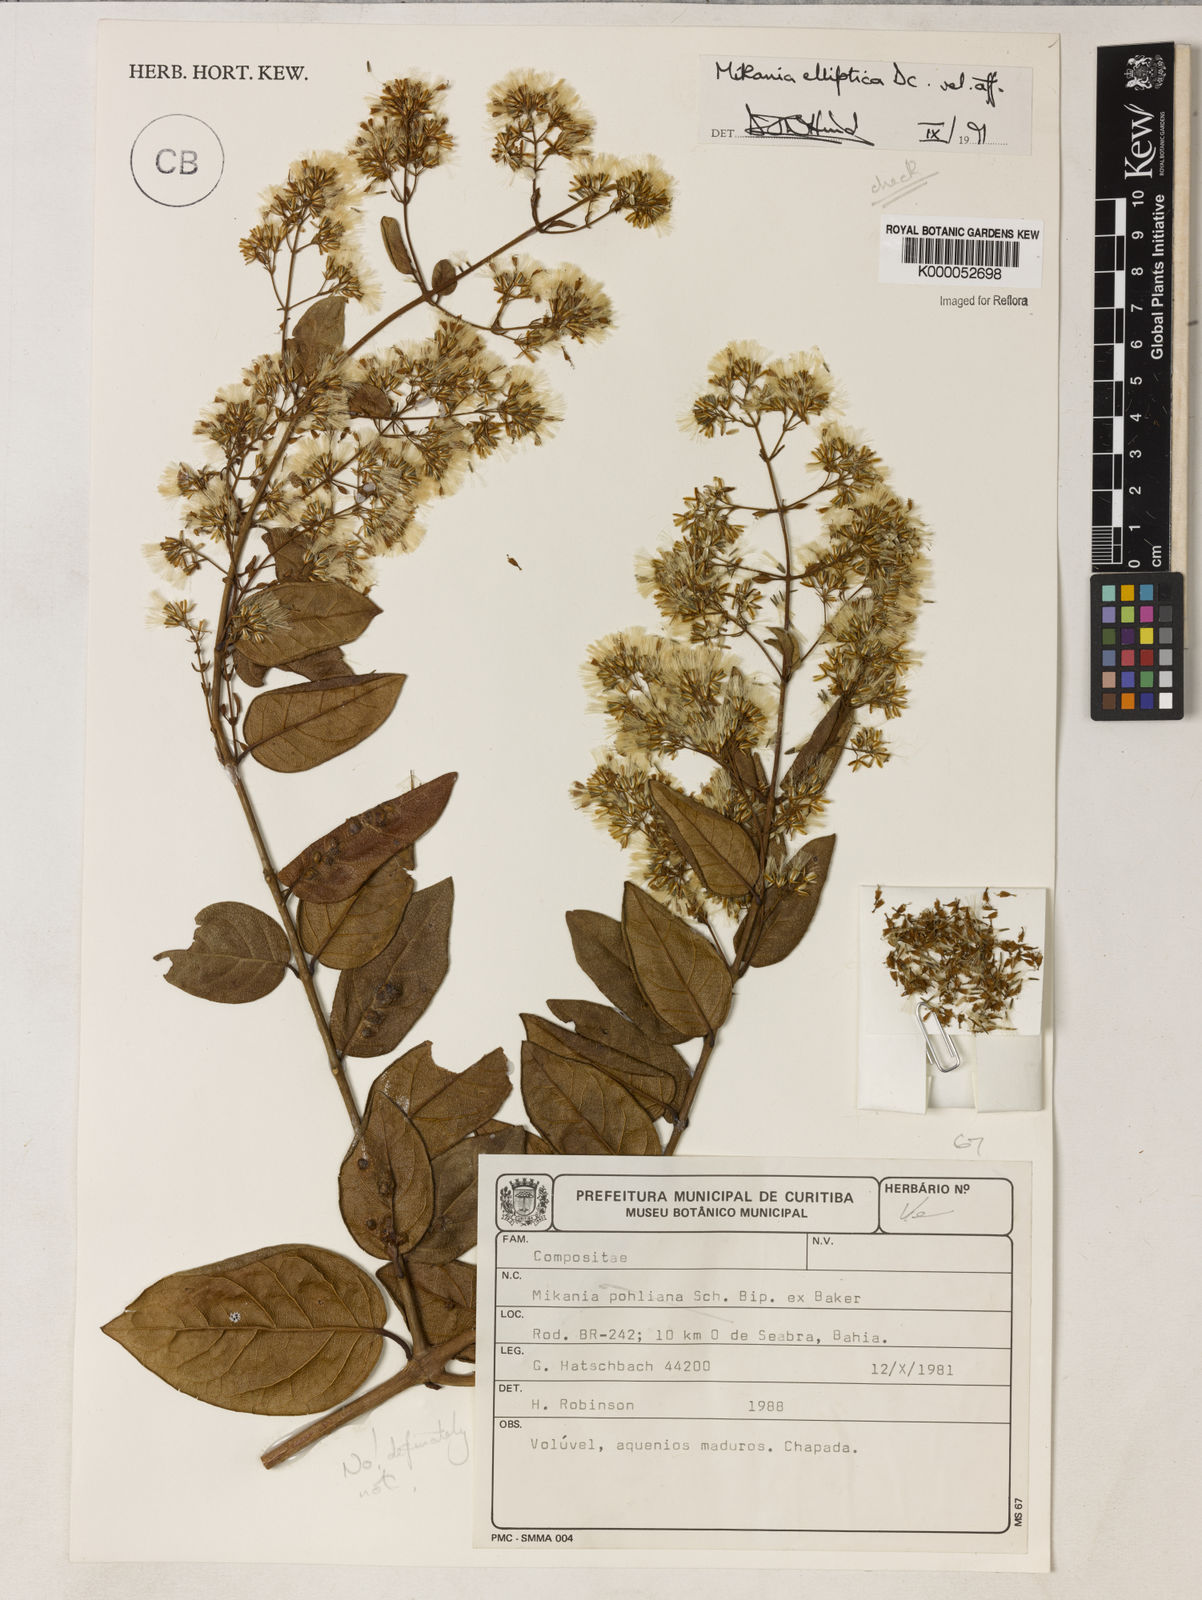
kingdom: Plantae
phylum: Tracheophyta
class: Magnoliopsida
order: Asterales
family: Asteraceae
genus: Mikania
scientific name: Mikania elliptica
